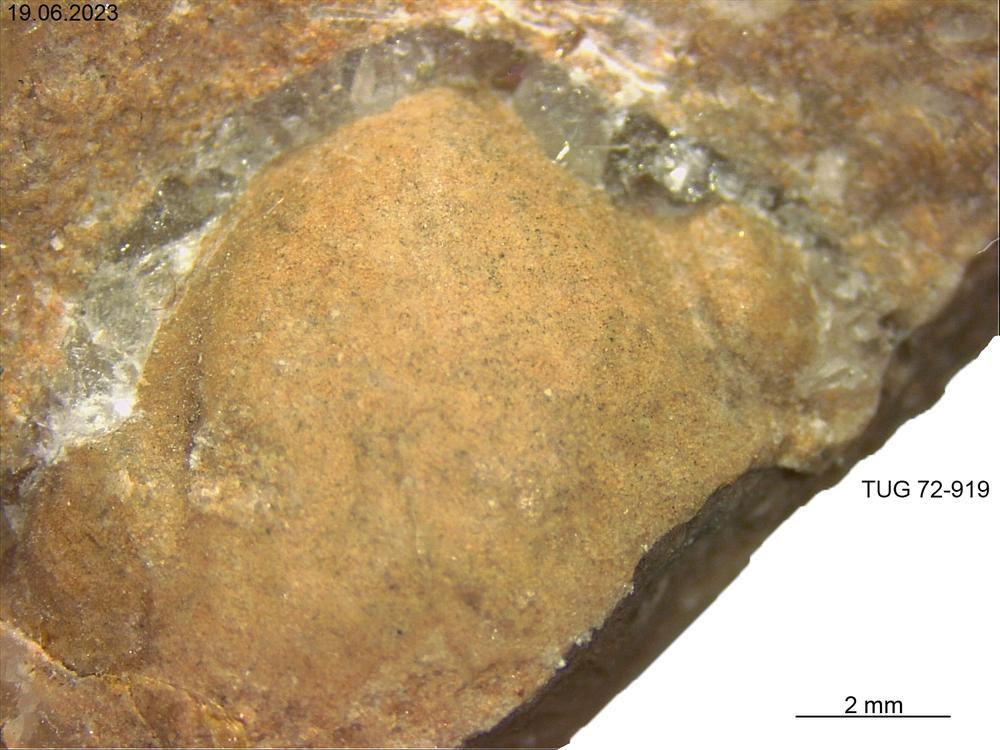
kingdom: Animalia
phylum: Mollusca
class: Bivalvia
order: Solemyida
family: Ctenodontidae
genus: Tancrediopsis
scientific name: Tancrediopsis
